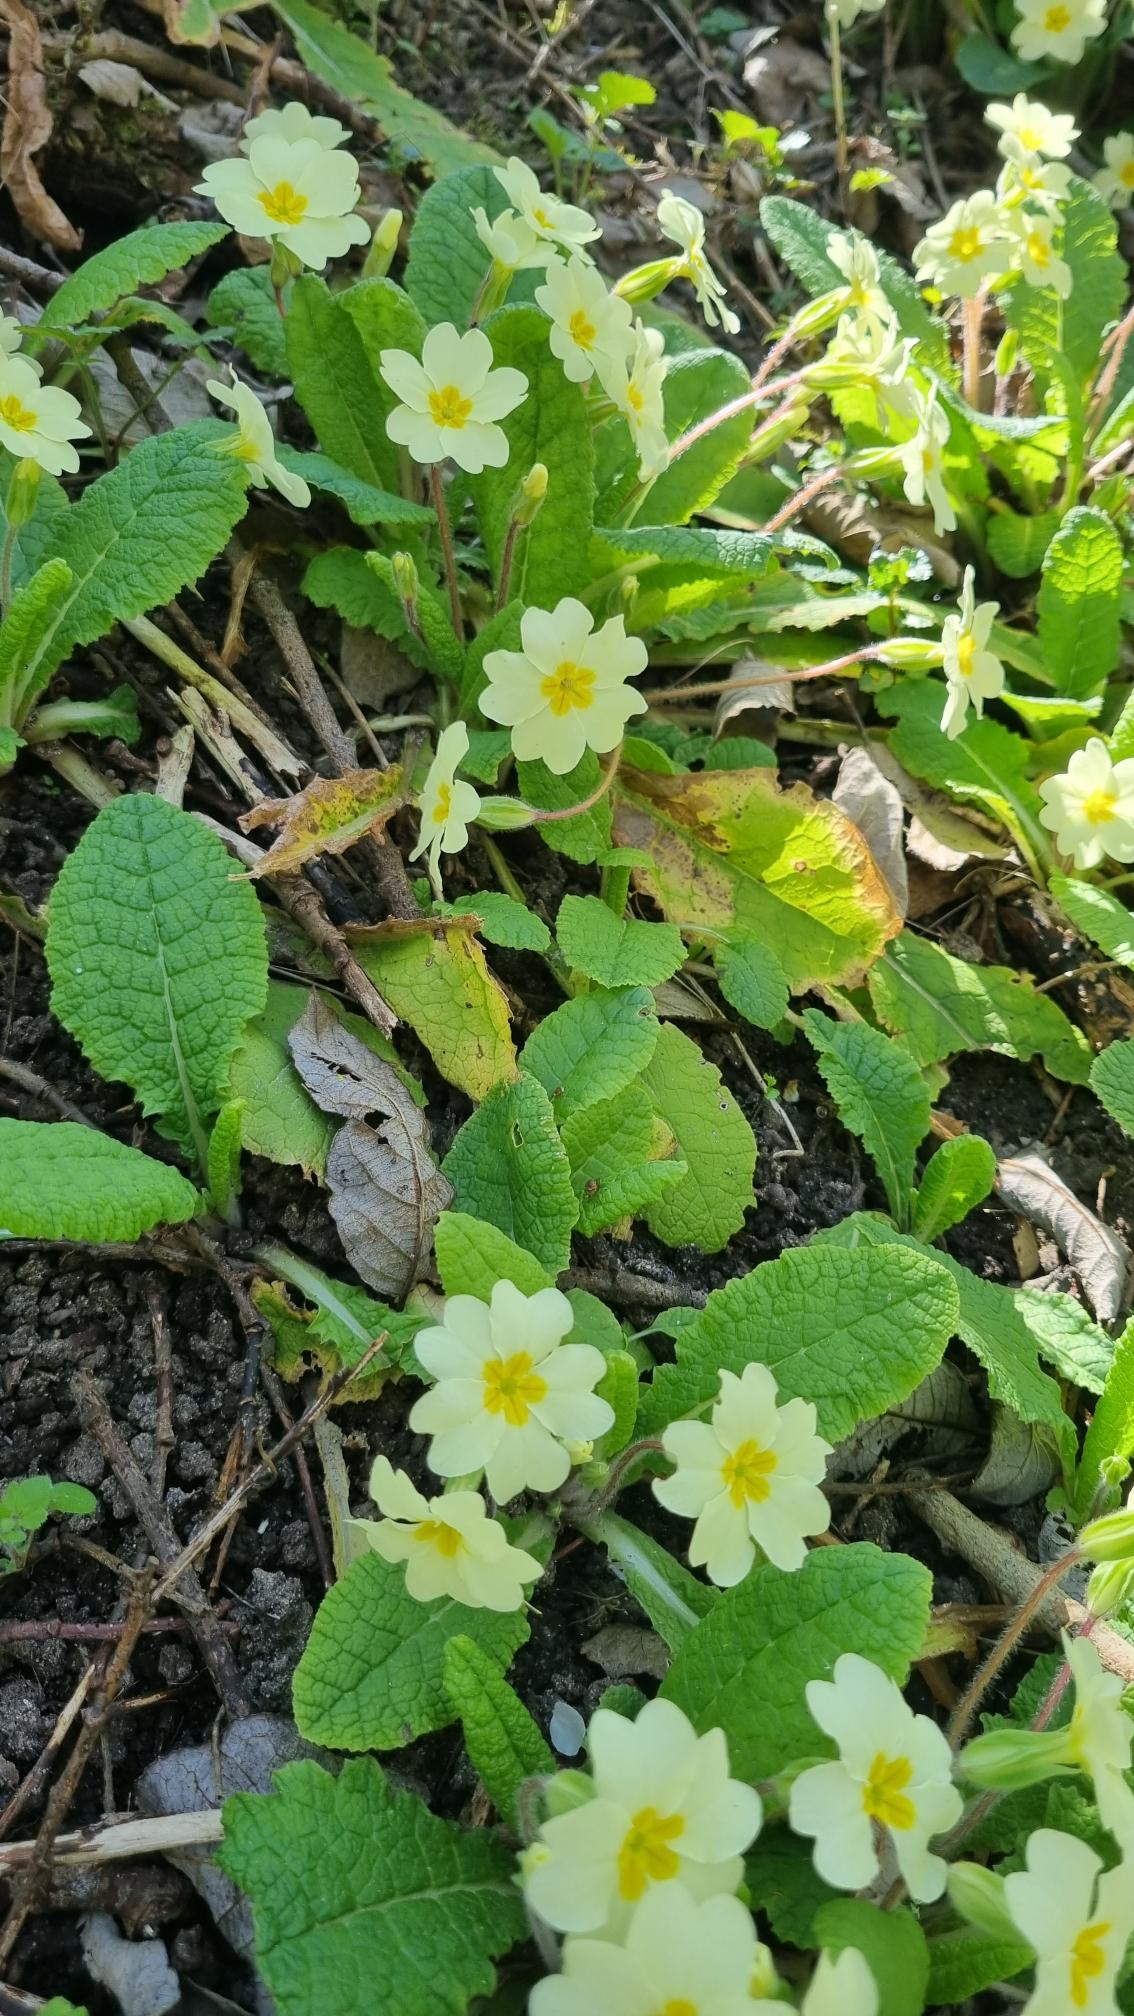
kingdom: Plantae
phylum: Tracheophyta
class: Magnoliopsida
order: Ericales
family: Primulaceae
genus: Primula
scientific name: Primula vulgaris
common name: Storblomstret kodriver
